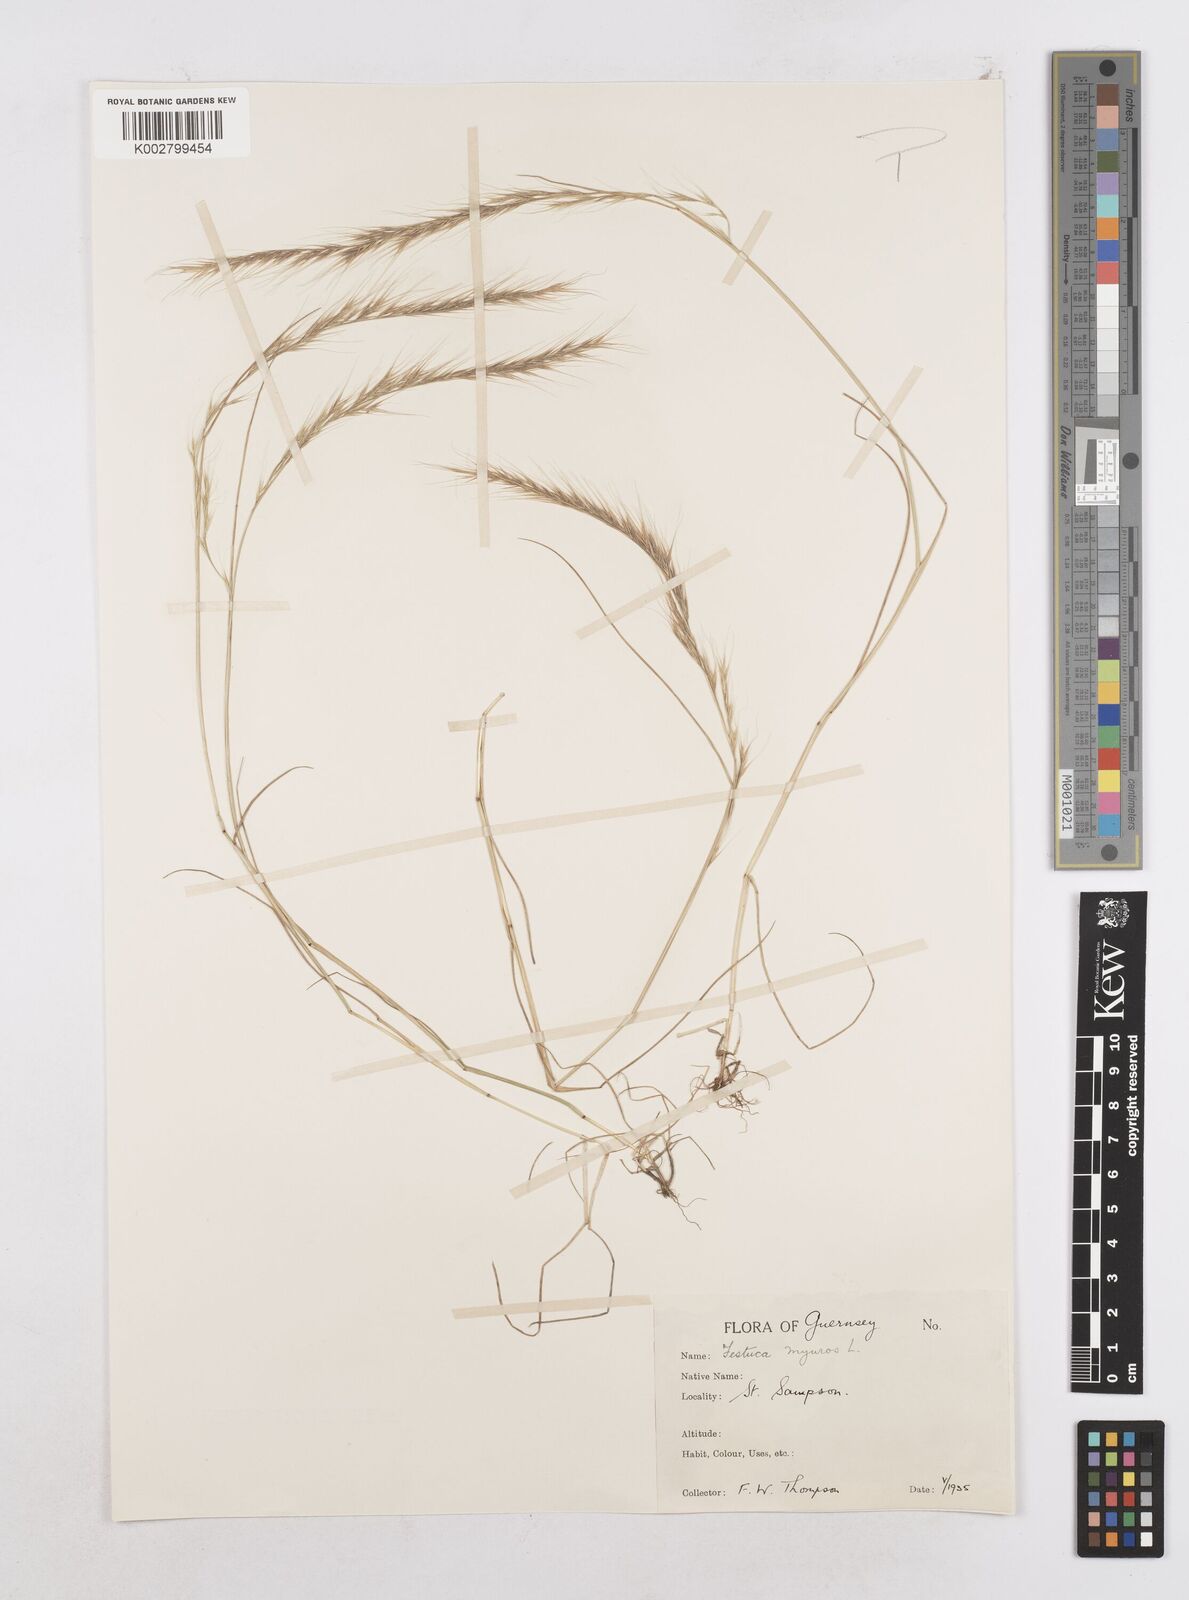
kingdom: Plantae
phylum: Tracheophyta
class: Liliopsida
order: Poales
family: Poaceae
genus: Festuca
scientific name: Festuca myuros
